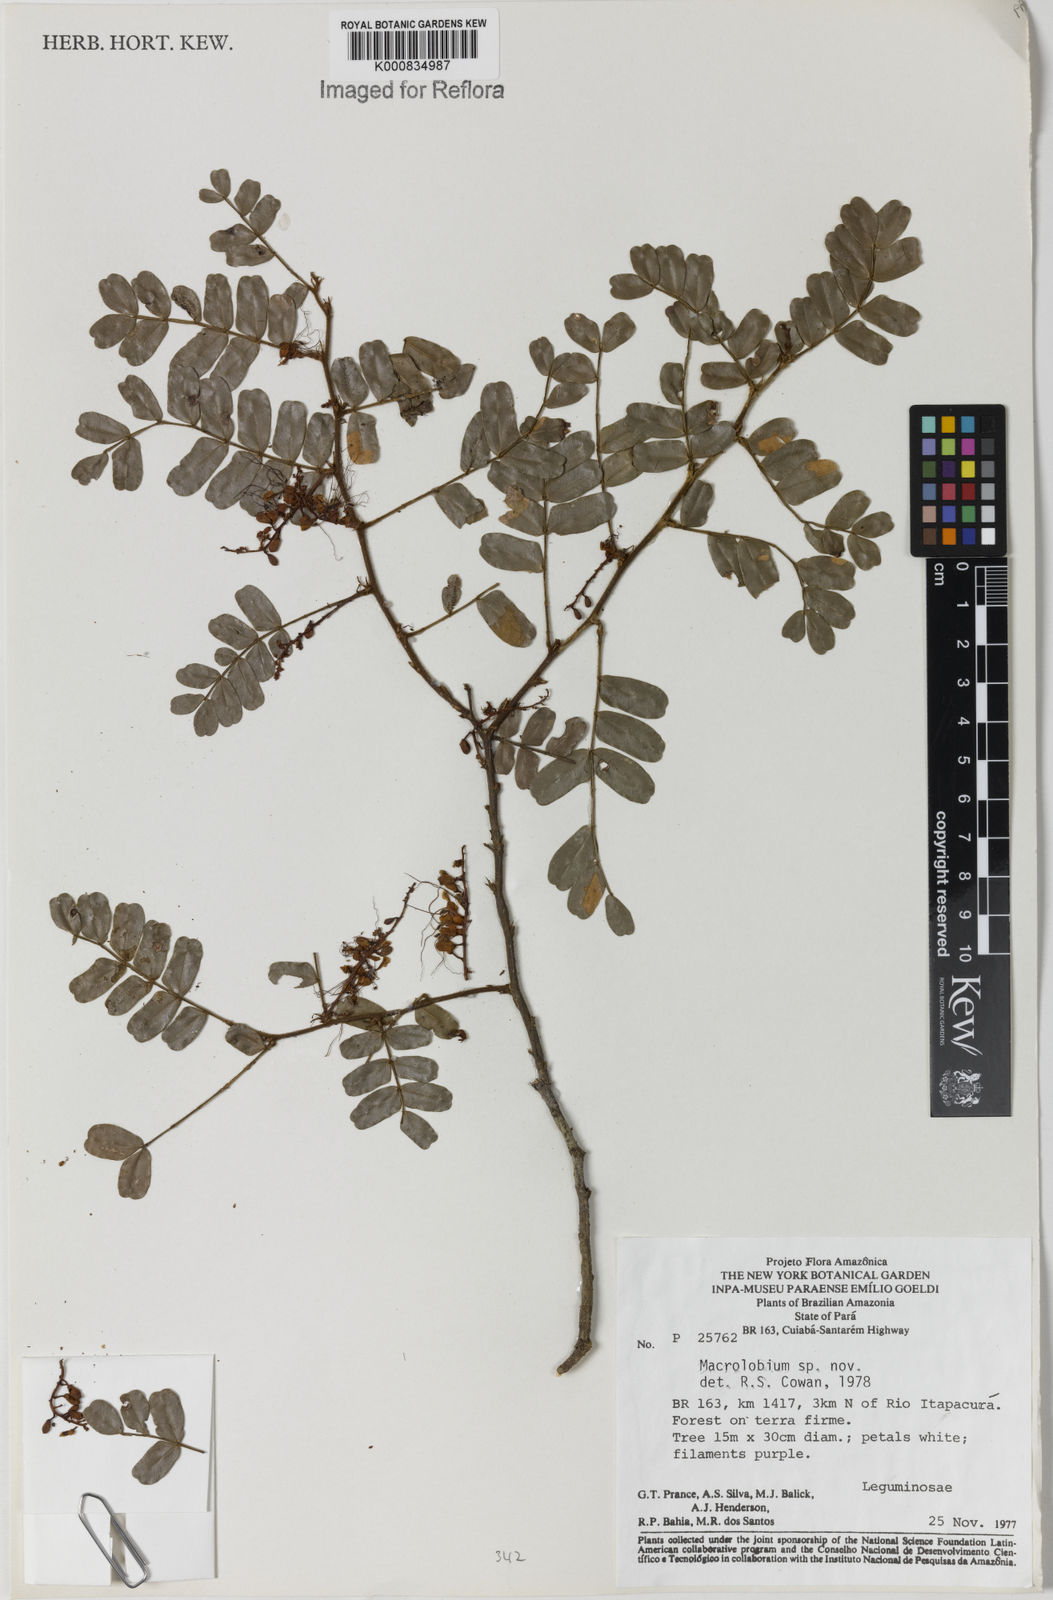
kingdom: Plantae
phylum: Tracheophyta
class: Magnoliopsida
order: Fabales
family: Fabaceae
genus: Macrolobium
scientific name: Macrolobium
